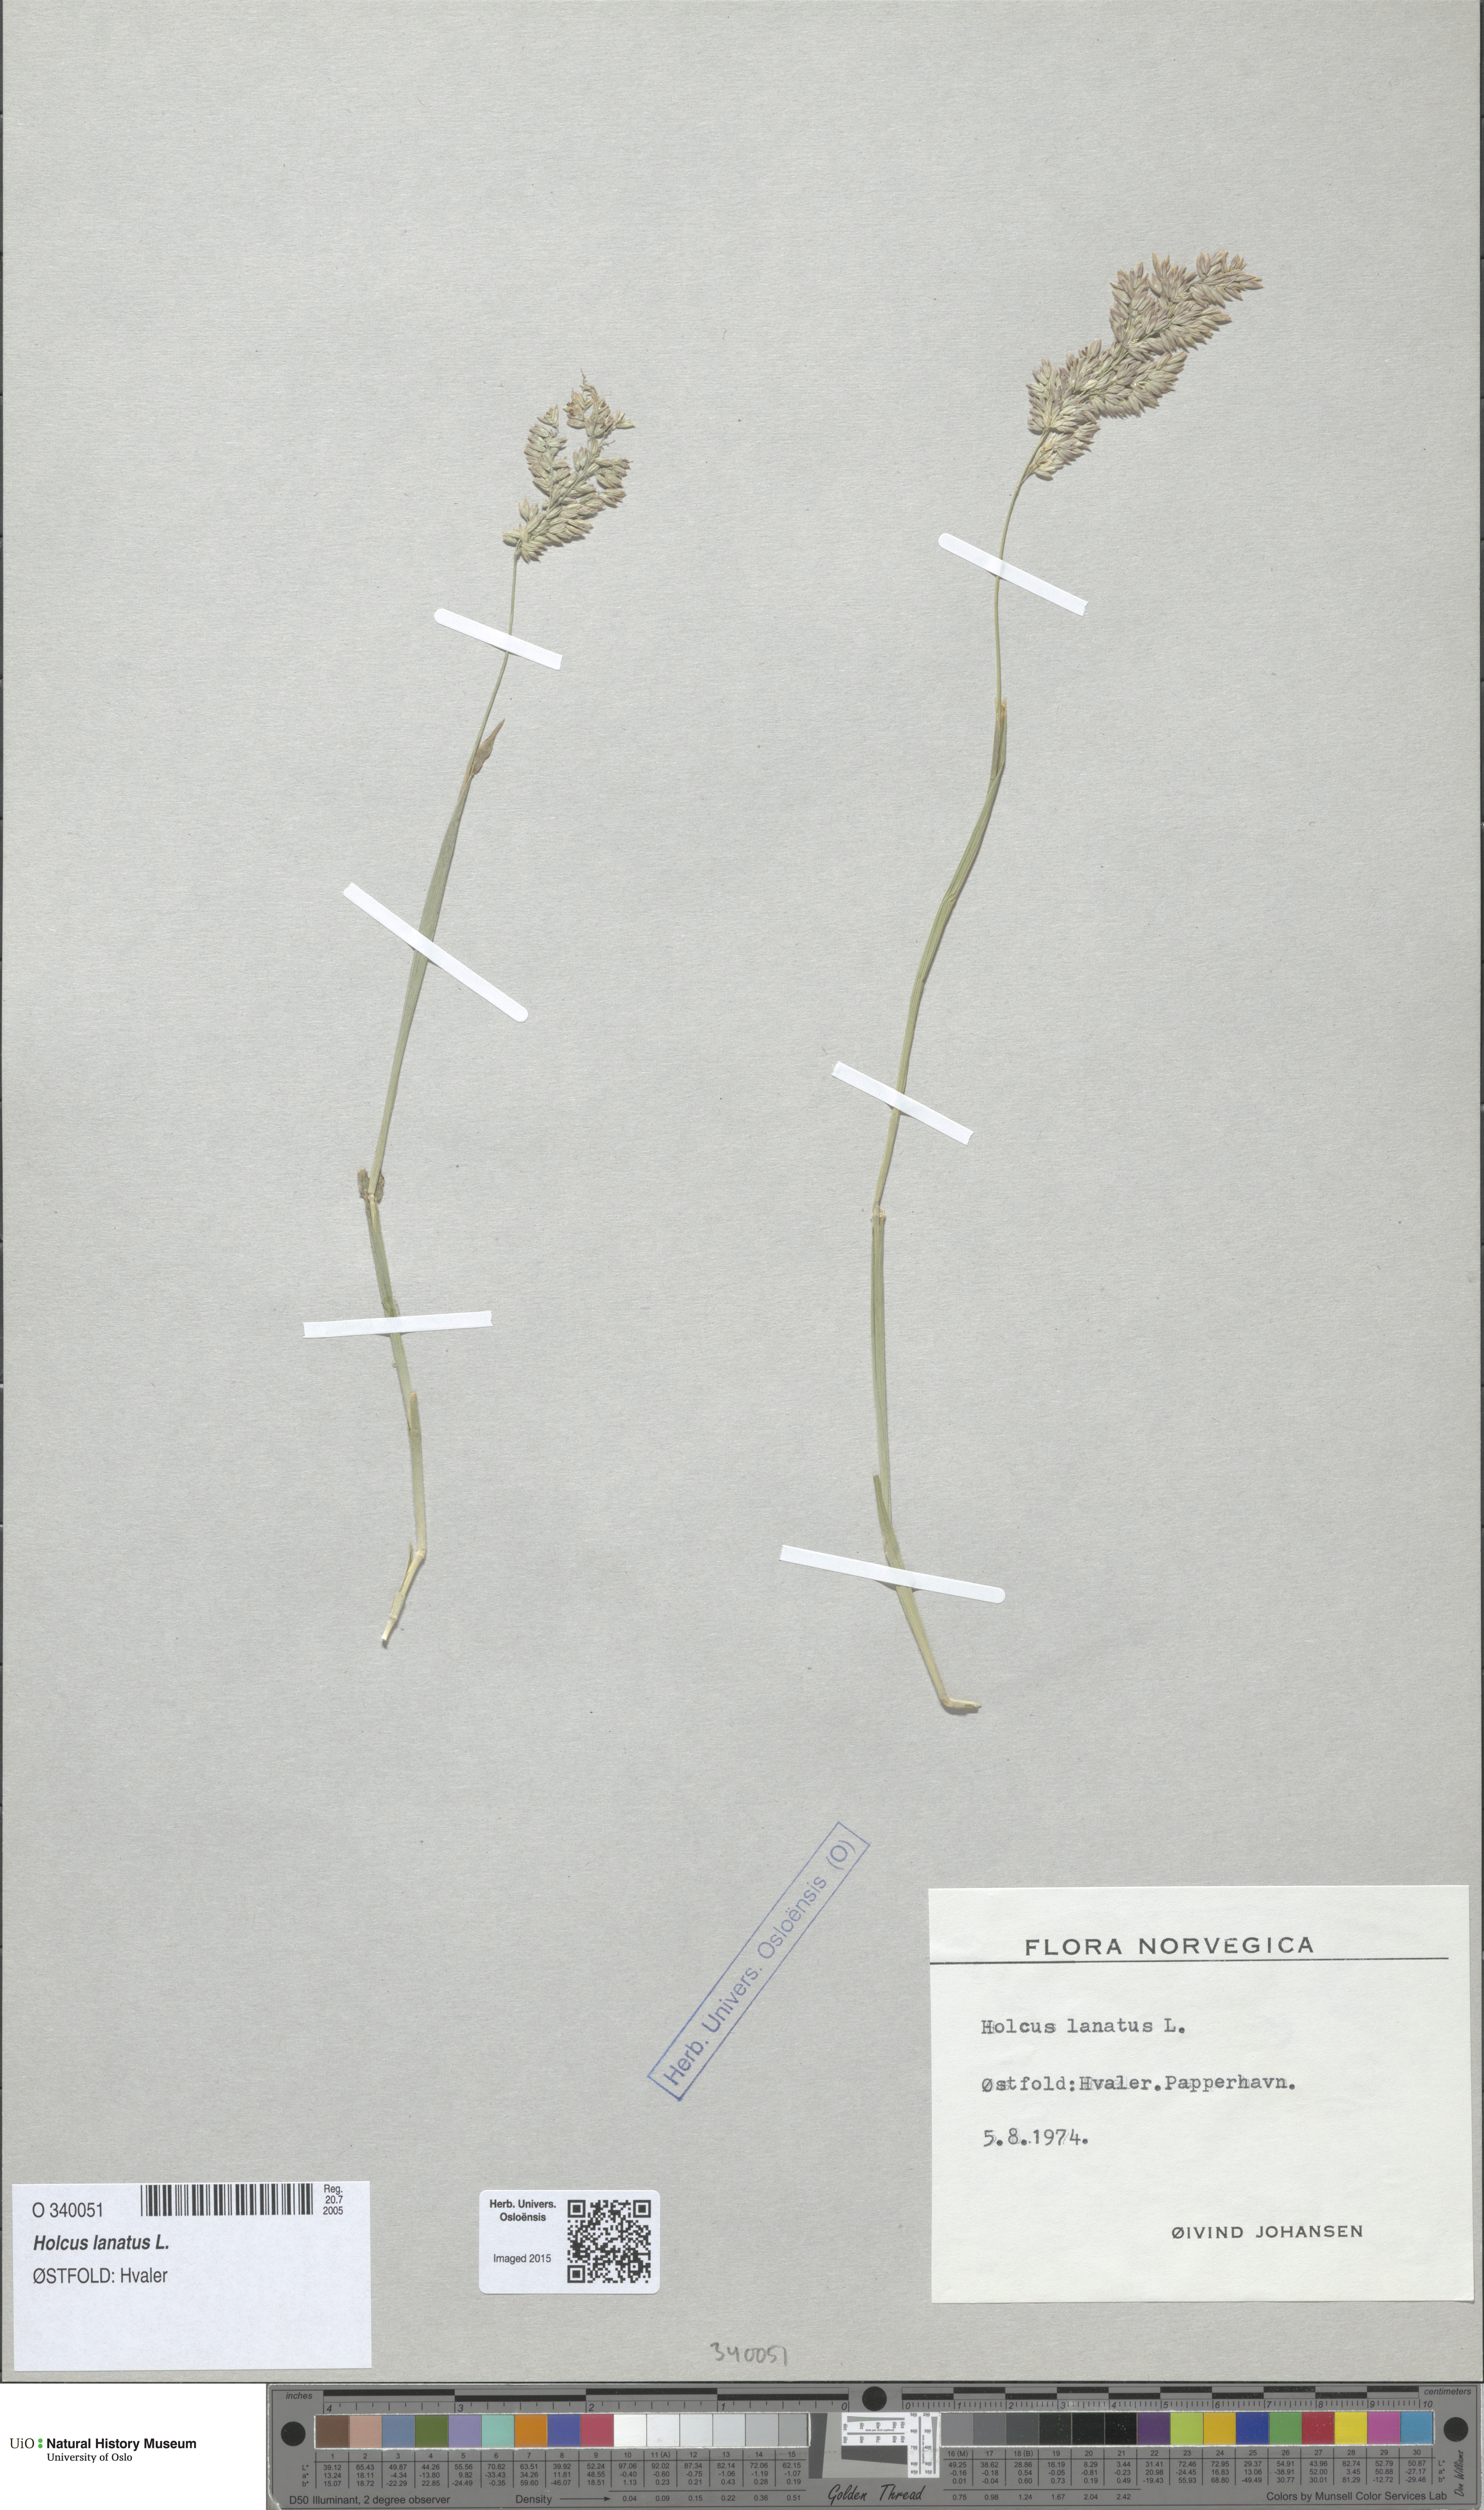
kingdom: Plantae
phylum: Tracheophyta
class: Liliopsida
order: Poales
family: Poaceae
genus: Holcus
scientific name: Holcus lanatus
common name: Yorkshire-fog
